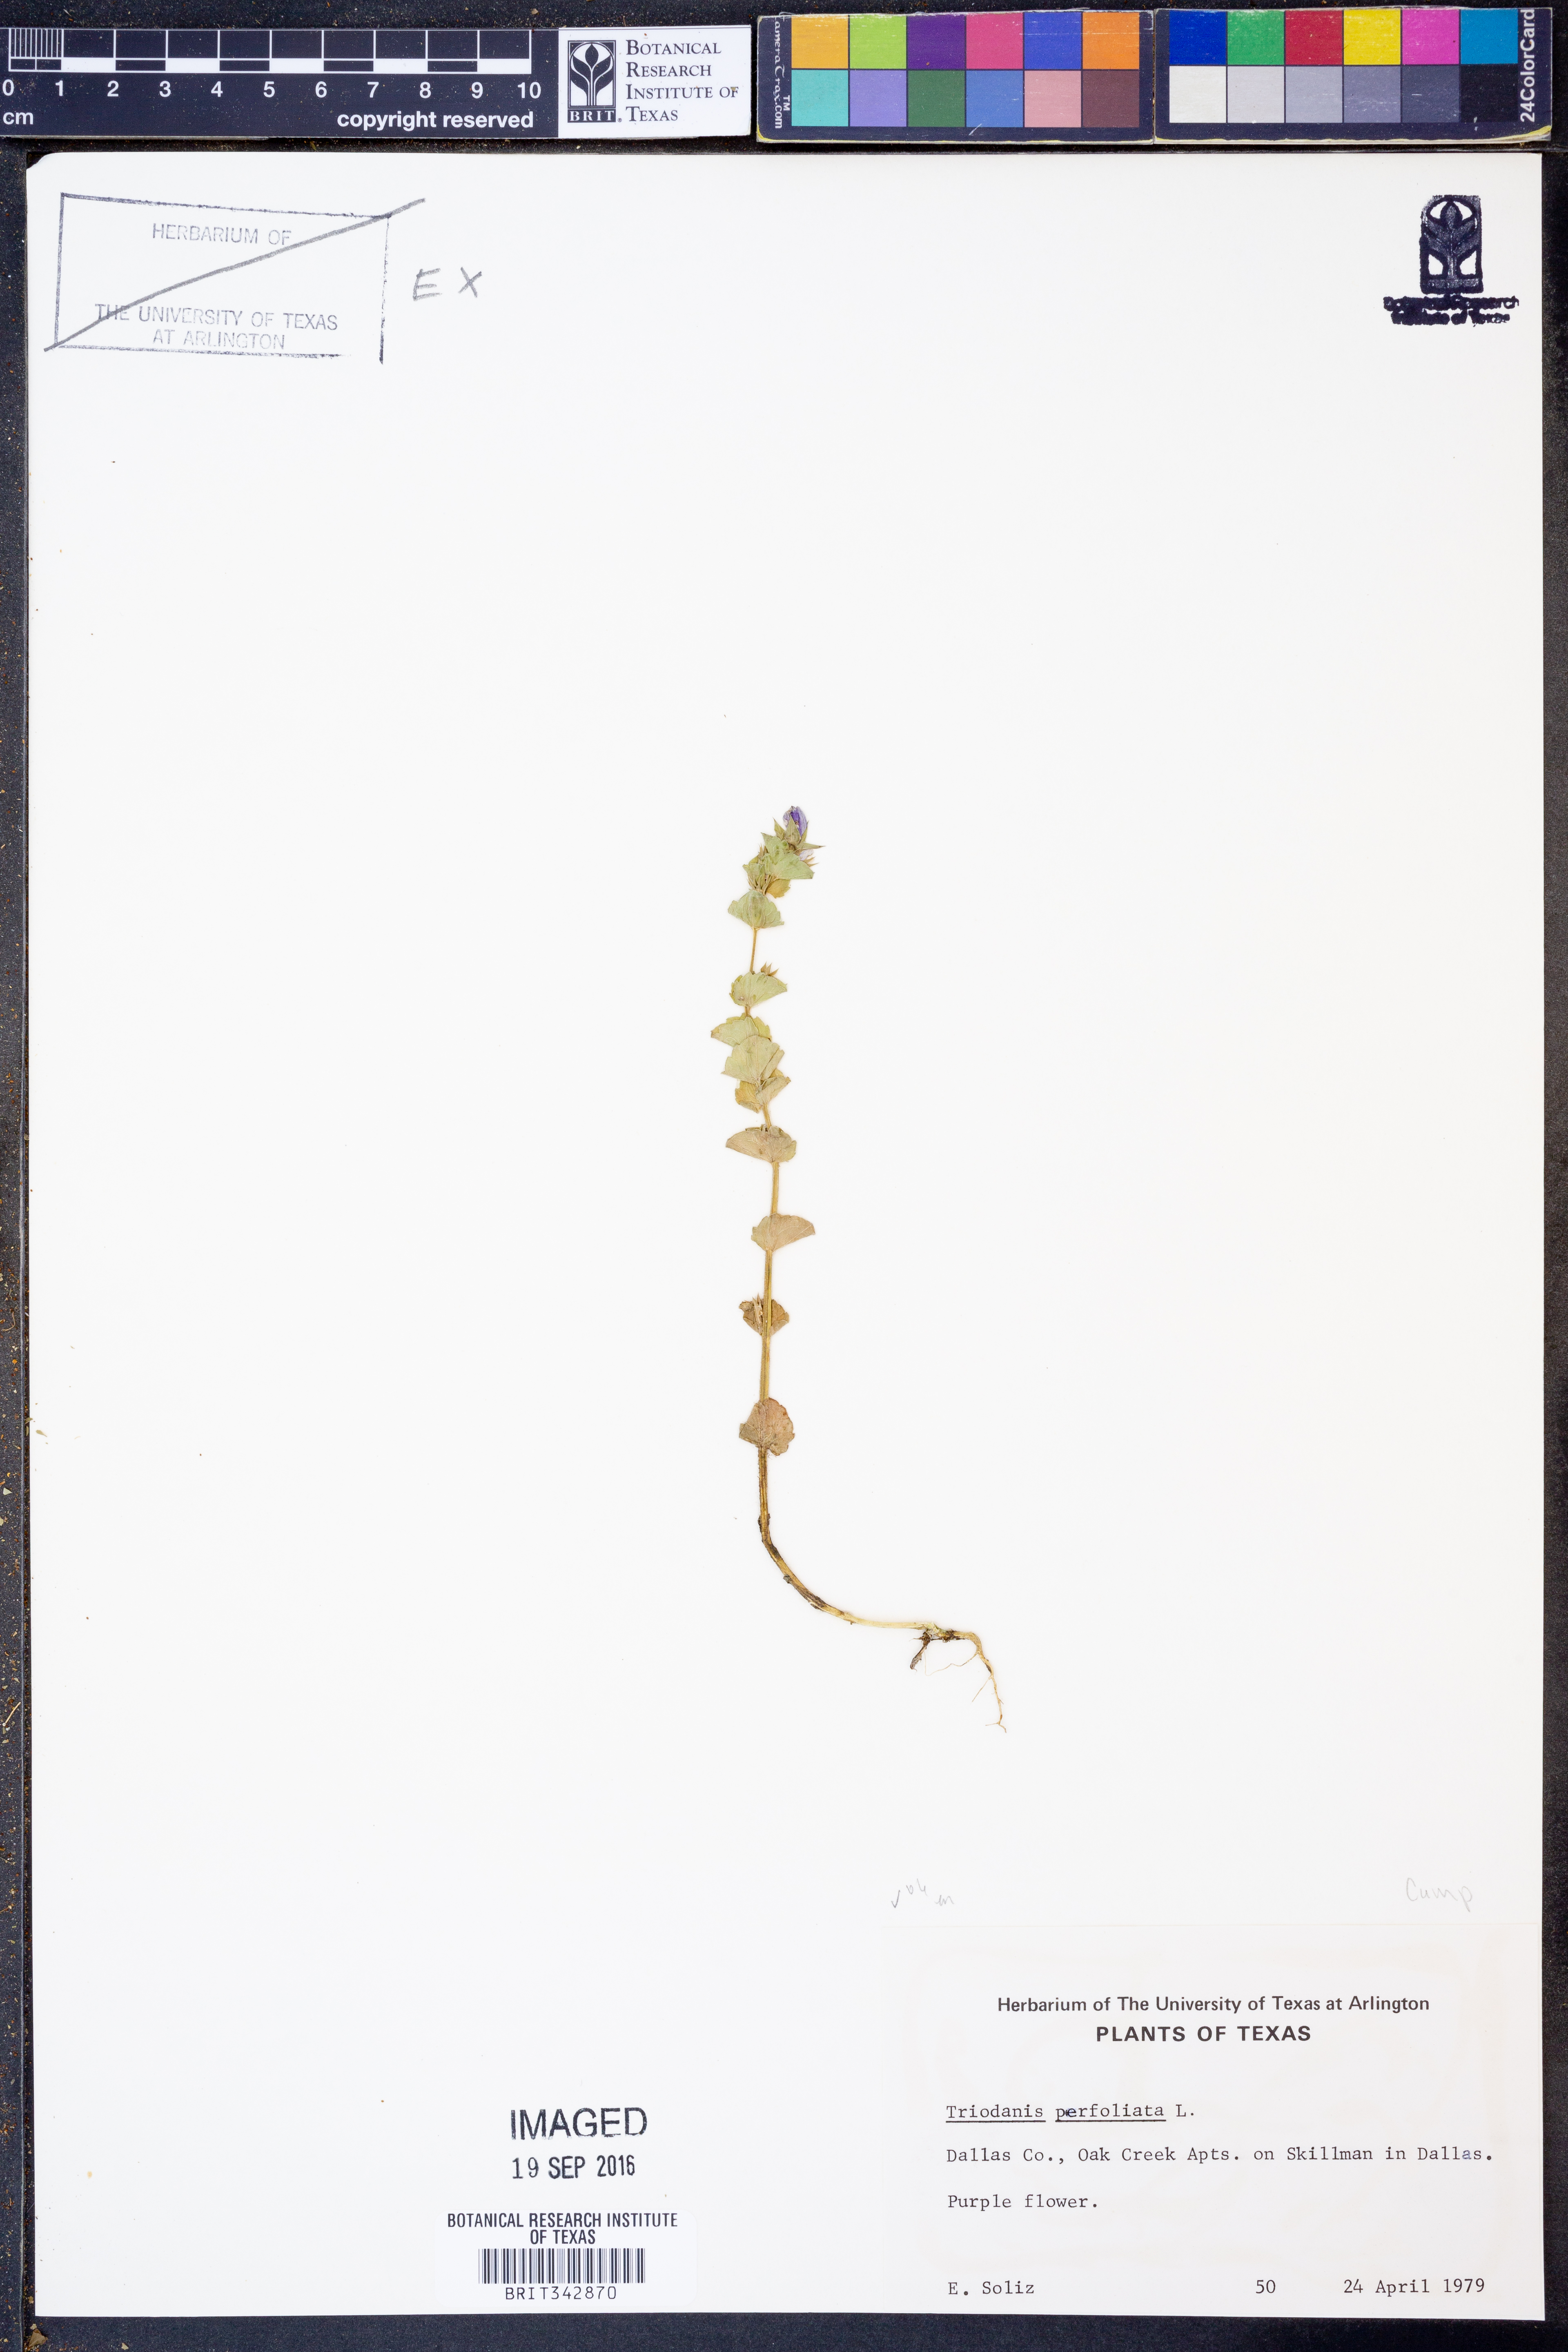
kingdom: Plantae
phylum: Tracheophyta
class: Magnoliopsida
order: Asterales
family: Campanulaceae
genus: Triodanis
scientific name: Triodanis perfoliata
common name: Clasping venus' looking-glass
